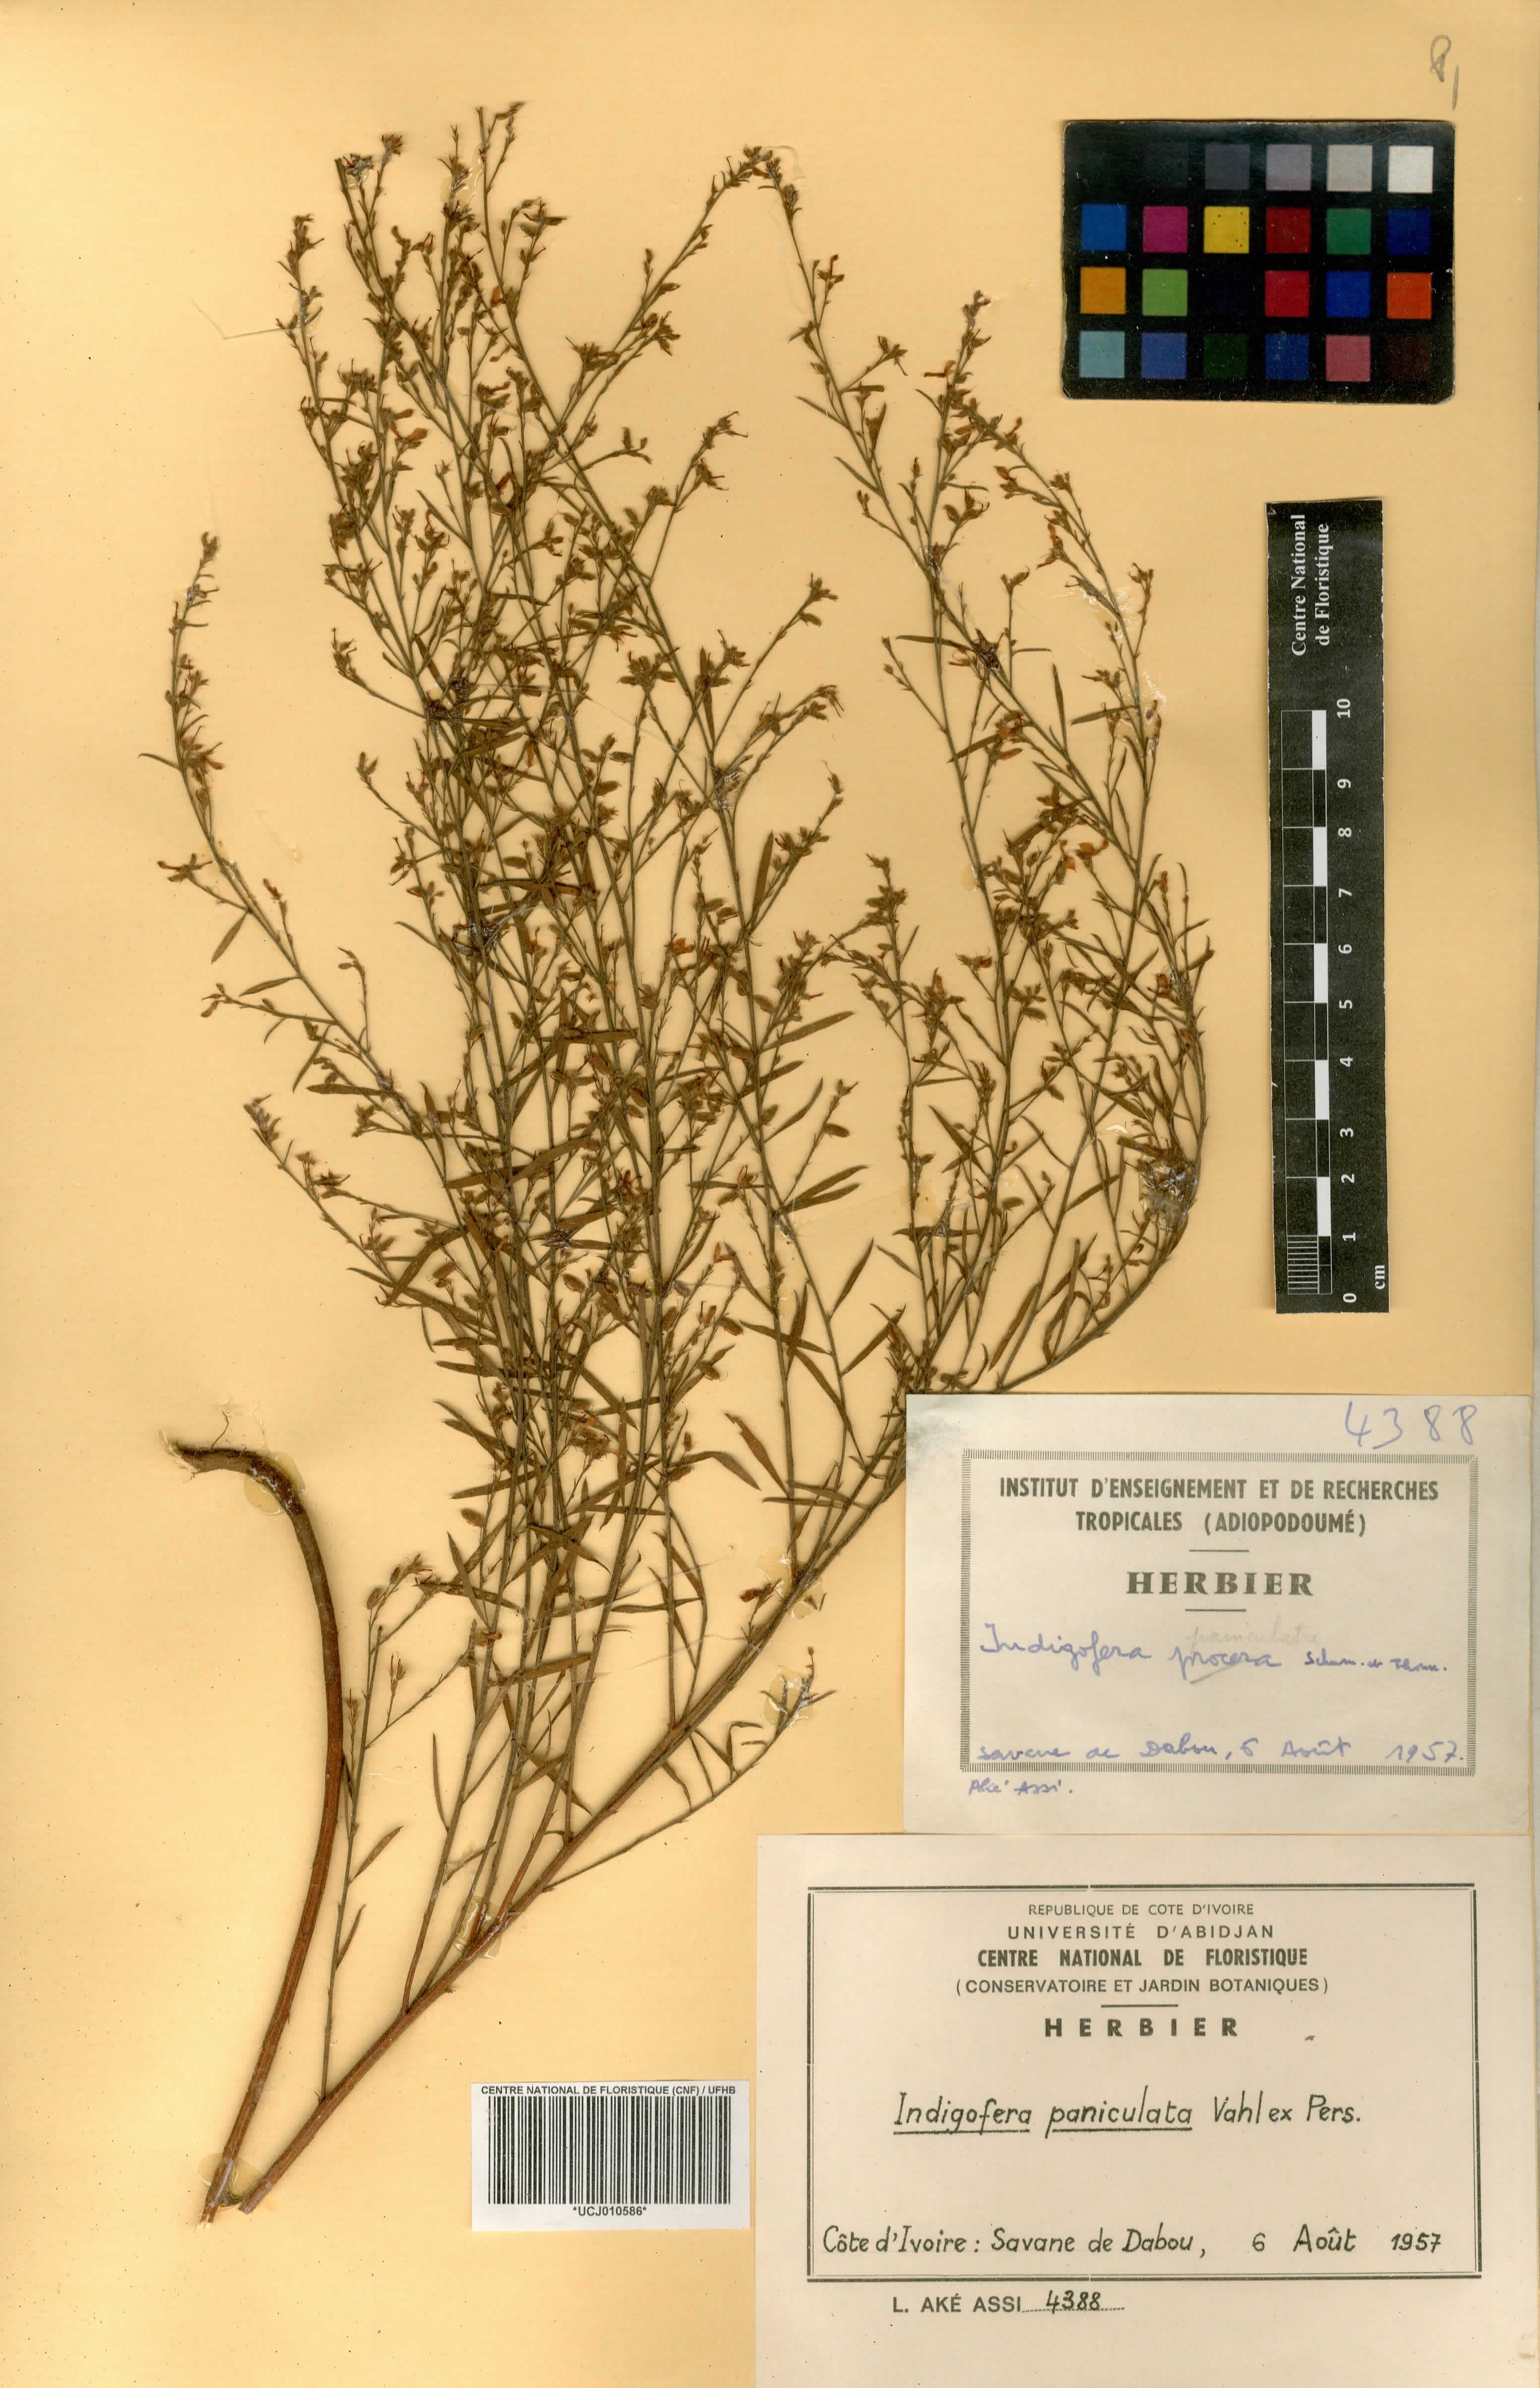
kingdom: Plantae
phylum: Tracheophyta
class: Magnoliopsida
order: Fabales
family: Fabaceae
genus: Indigofera
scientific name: Indigofera paniculata
